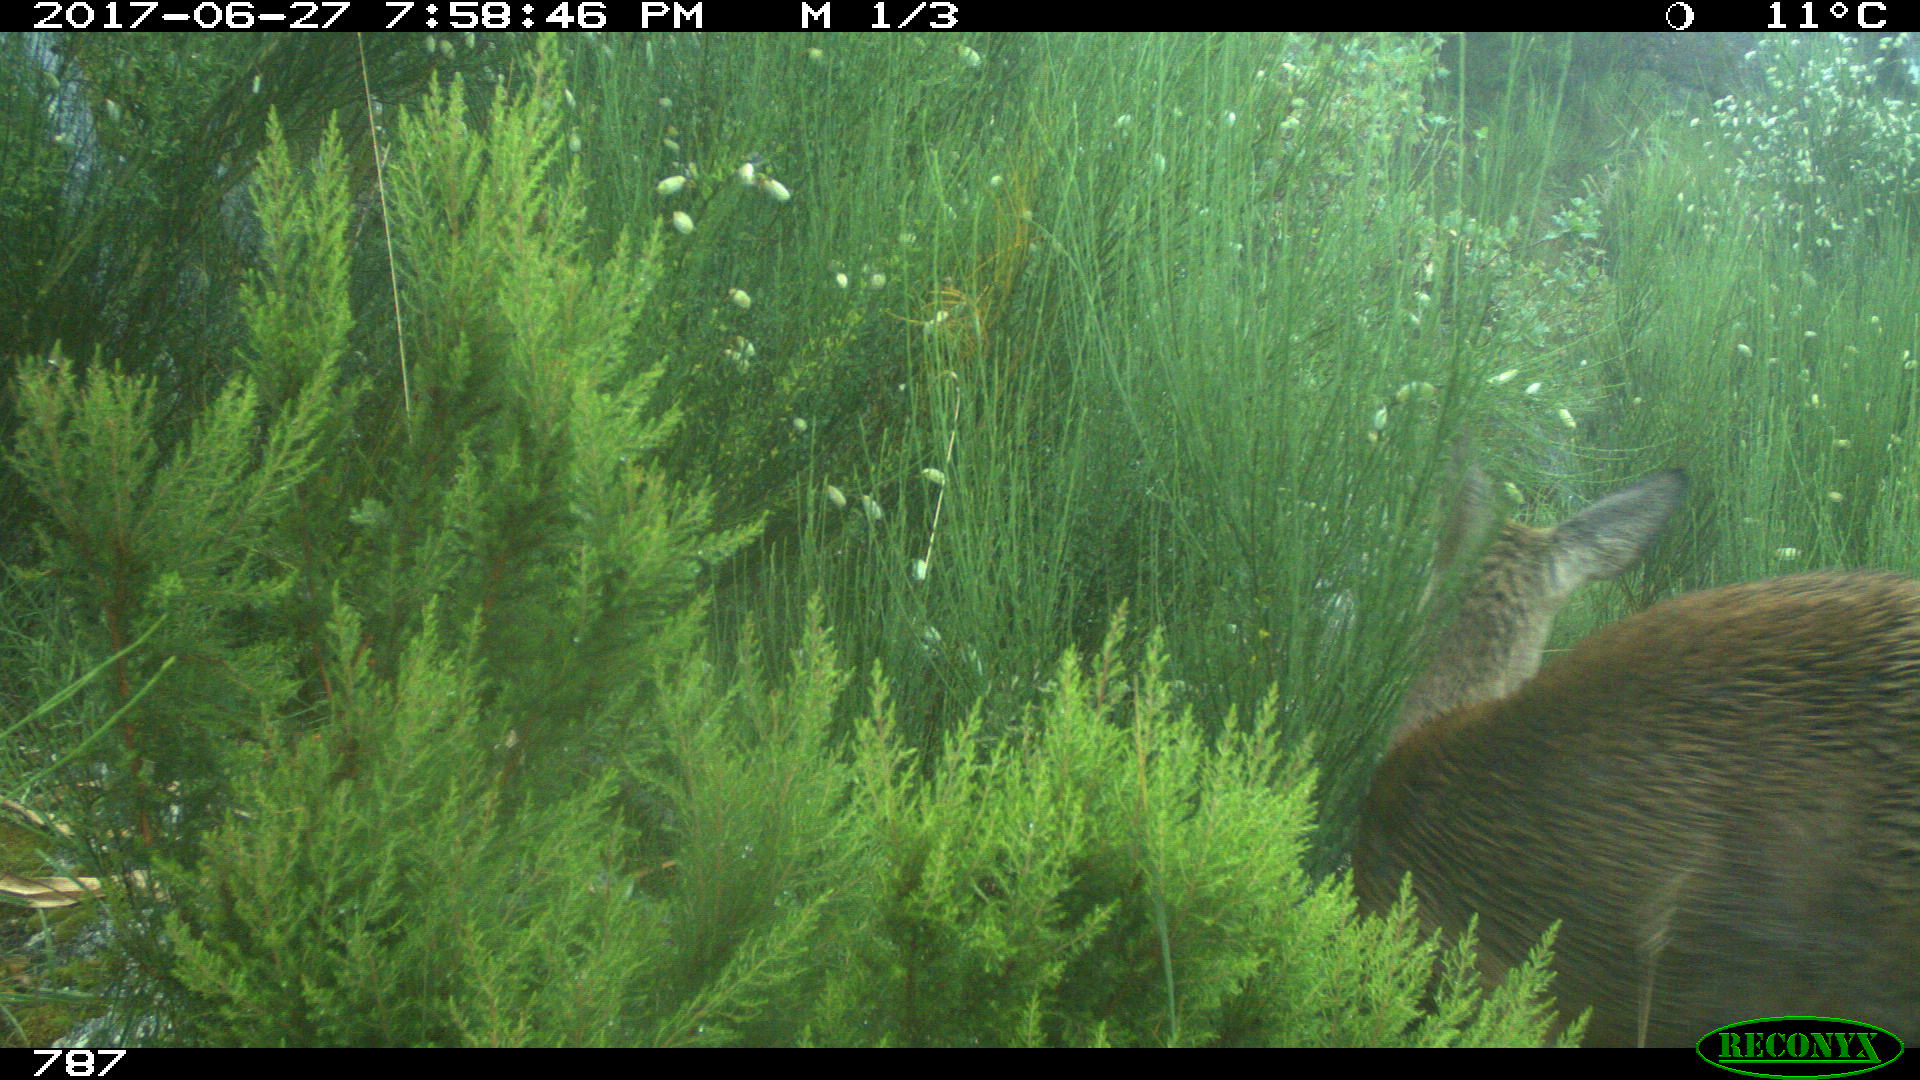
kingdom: Animalia
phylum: Chordata
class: Mammalia
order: Artiodactyla
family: Cervidae
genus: Capreolus
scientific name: Capreolus capreolus
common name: Western roe deer
